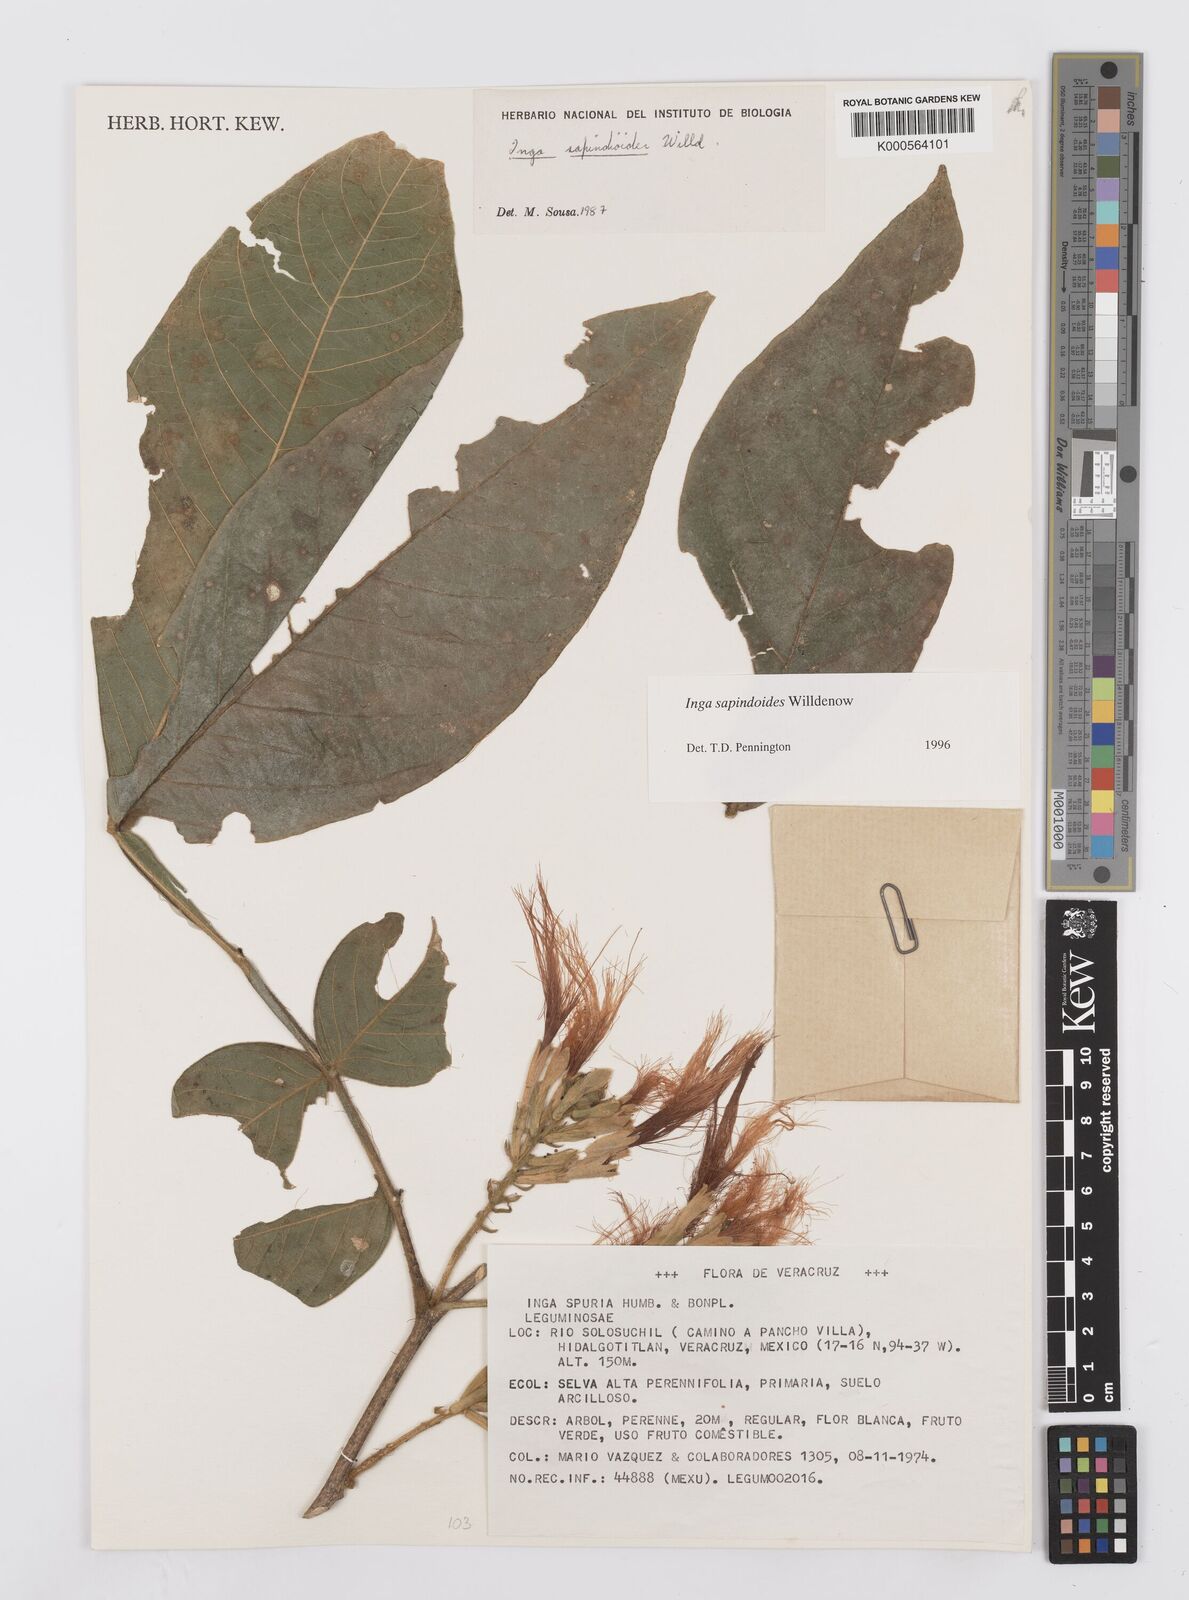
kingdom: Plantae
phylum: Tracheophyta
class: Magnoliopsida
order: Fabales
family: Fabaceae
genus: Inga
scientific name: Inga sapindoides
